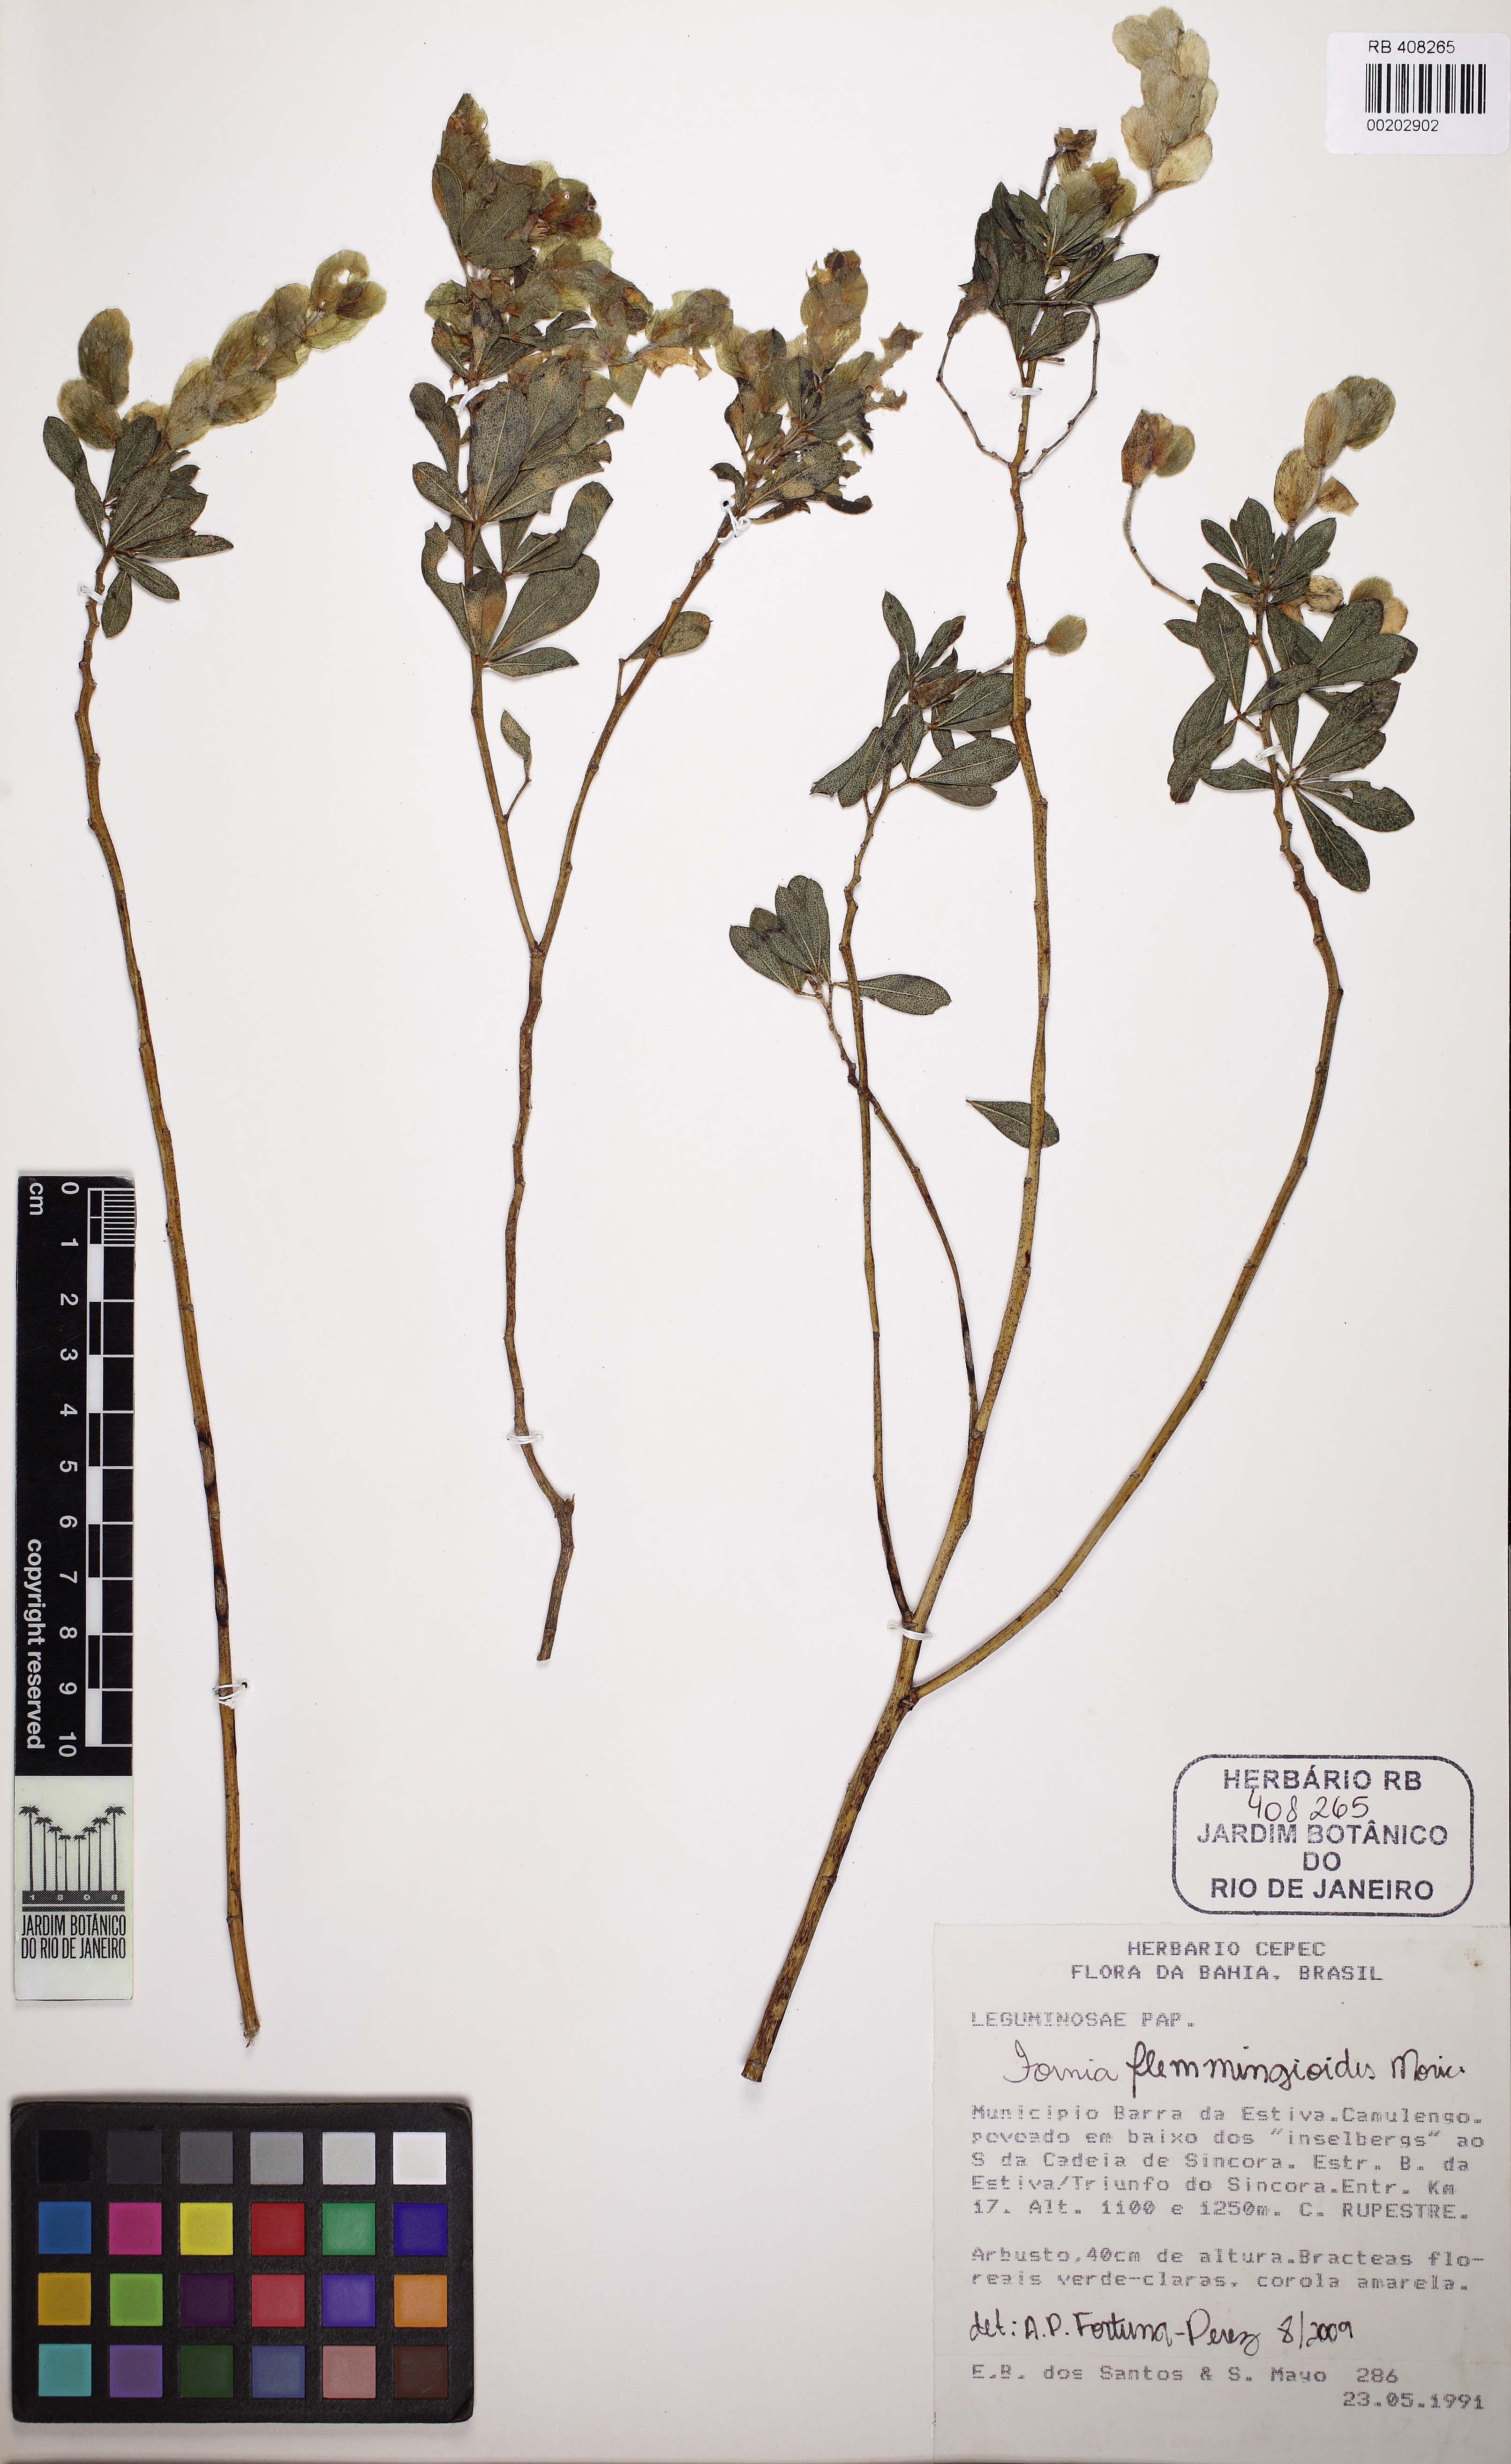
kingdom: Plantae
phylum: Tracheophyta
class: Magnoliopsida
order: Fabales
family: Fabaceae
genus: Zornia
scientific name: Zornia flemmingioides
